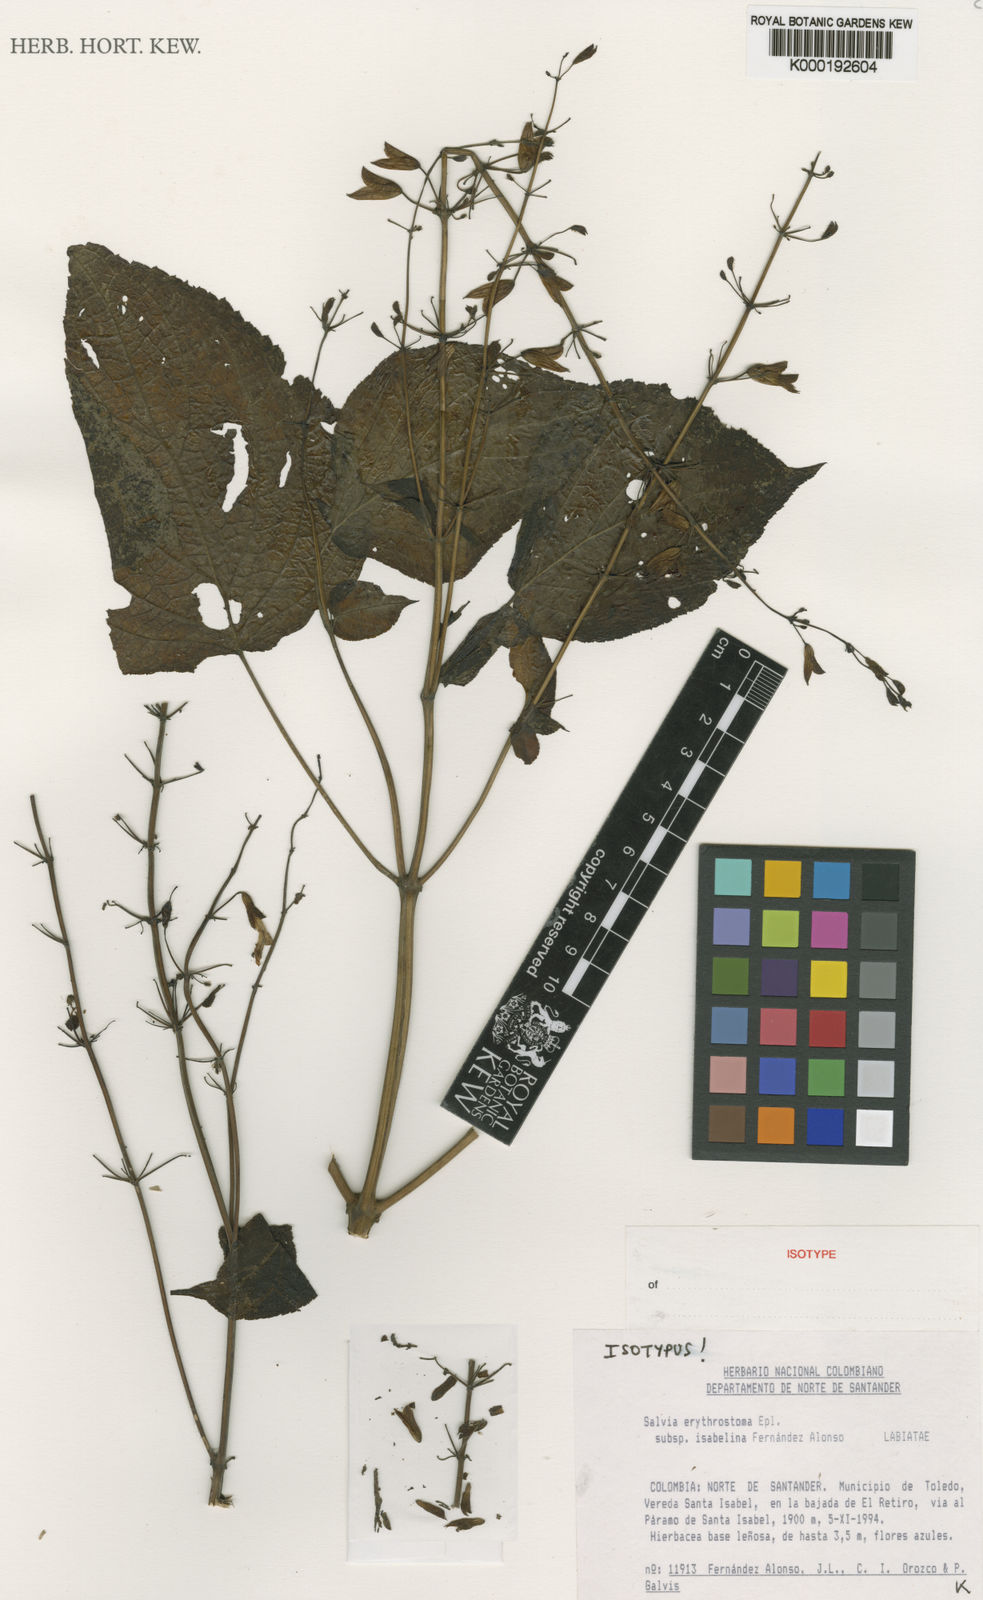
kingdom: Plantae
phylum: Tracheophyta
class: Magnoliopsida
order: Lamiales
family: Lamiaceae
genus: Salvia
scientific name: Salvia erythrostoma
